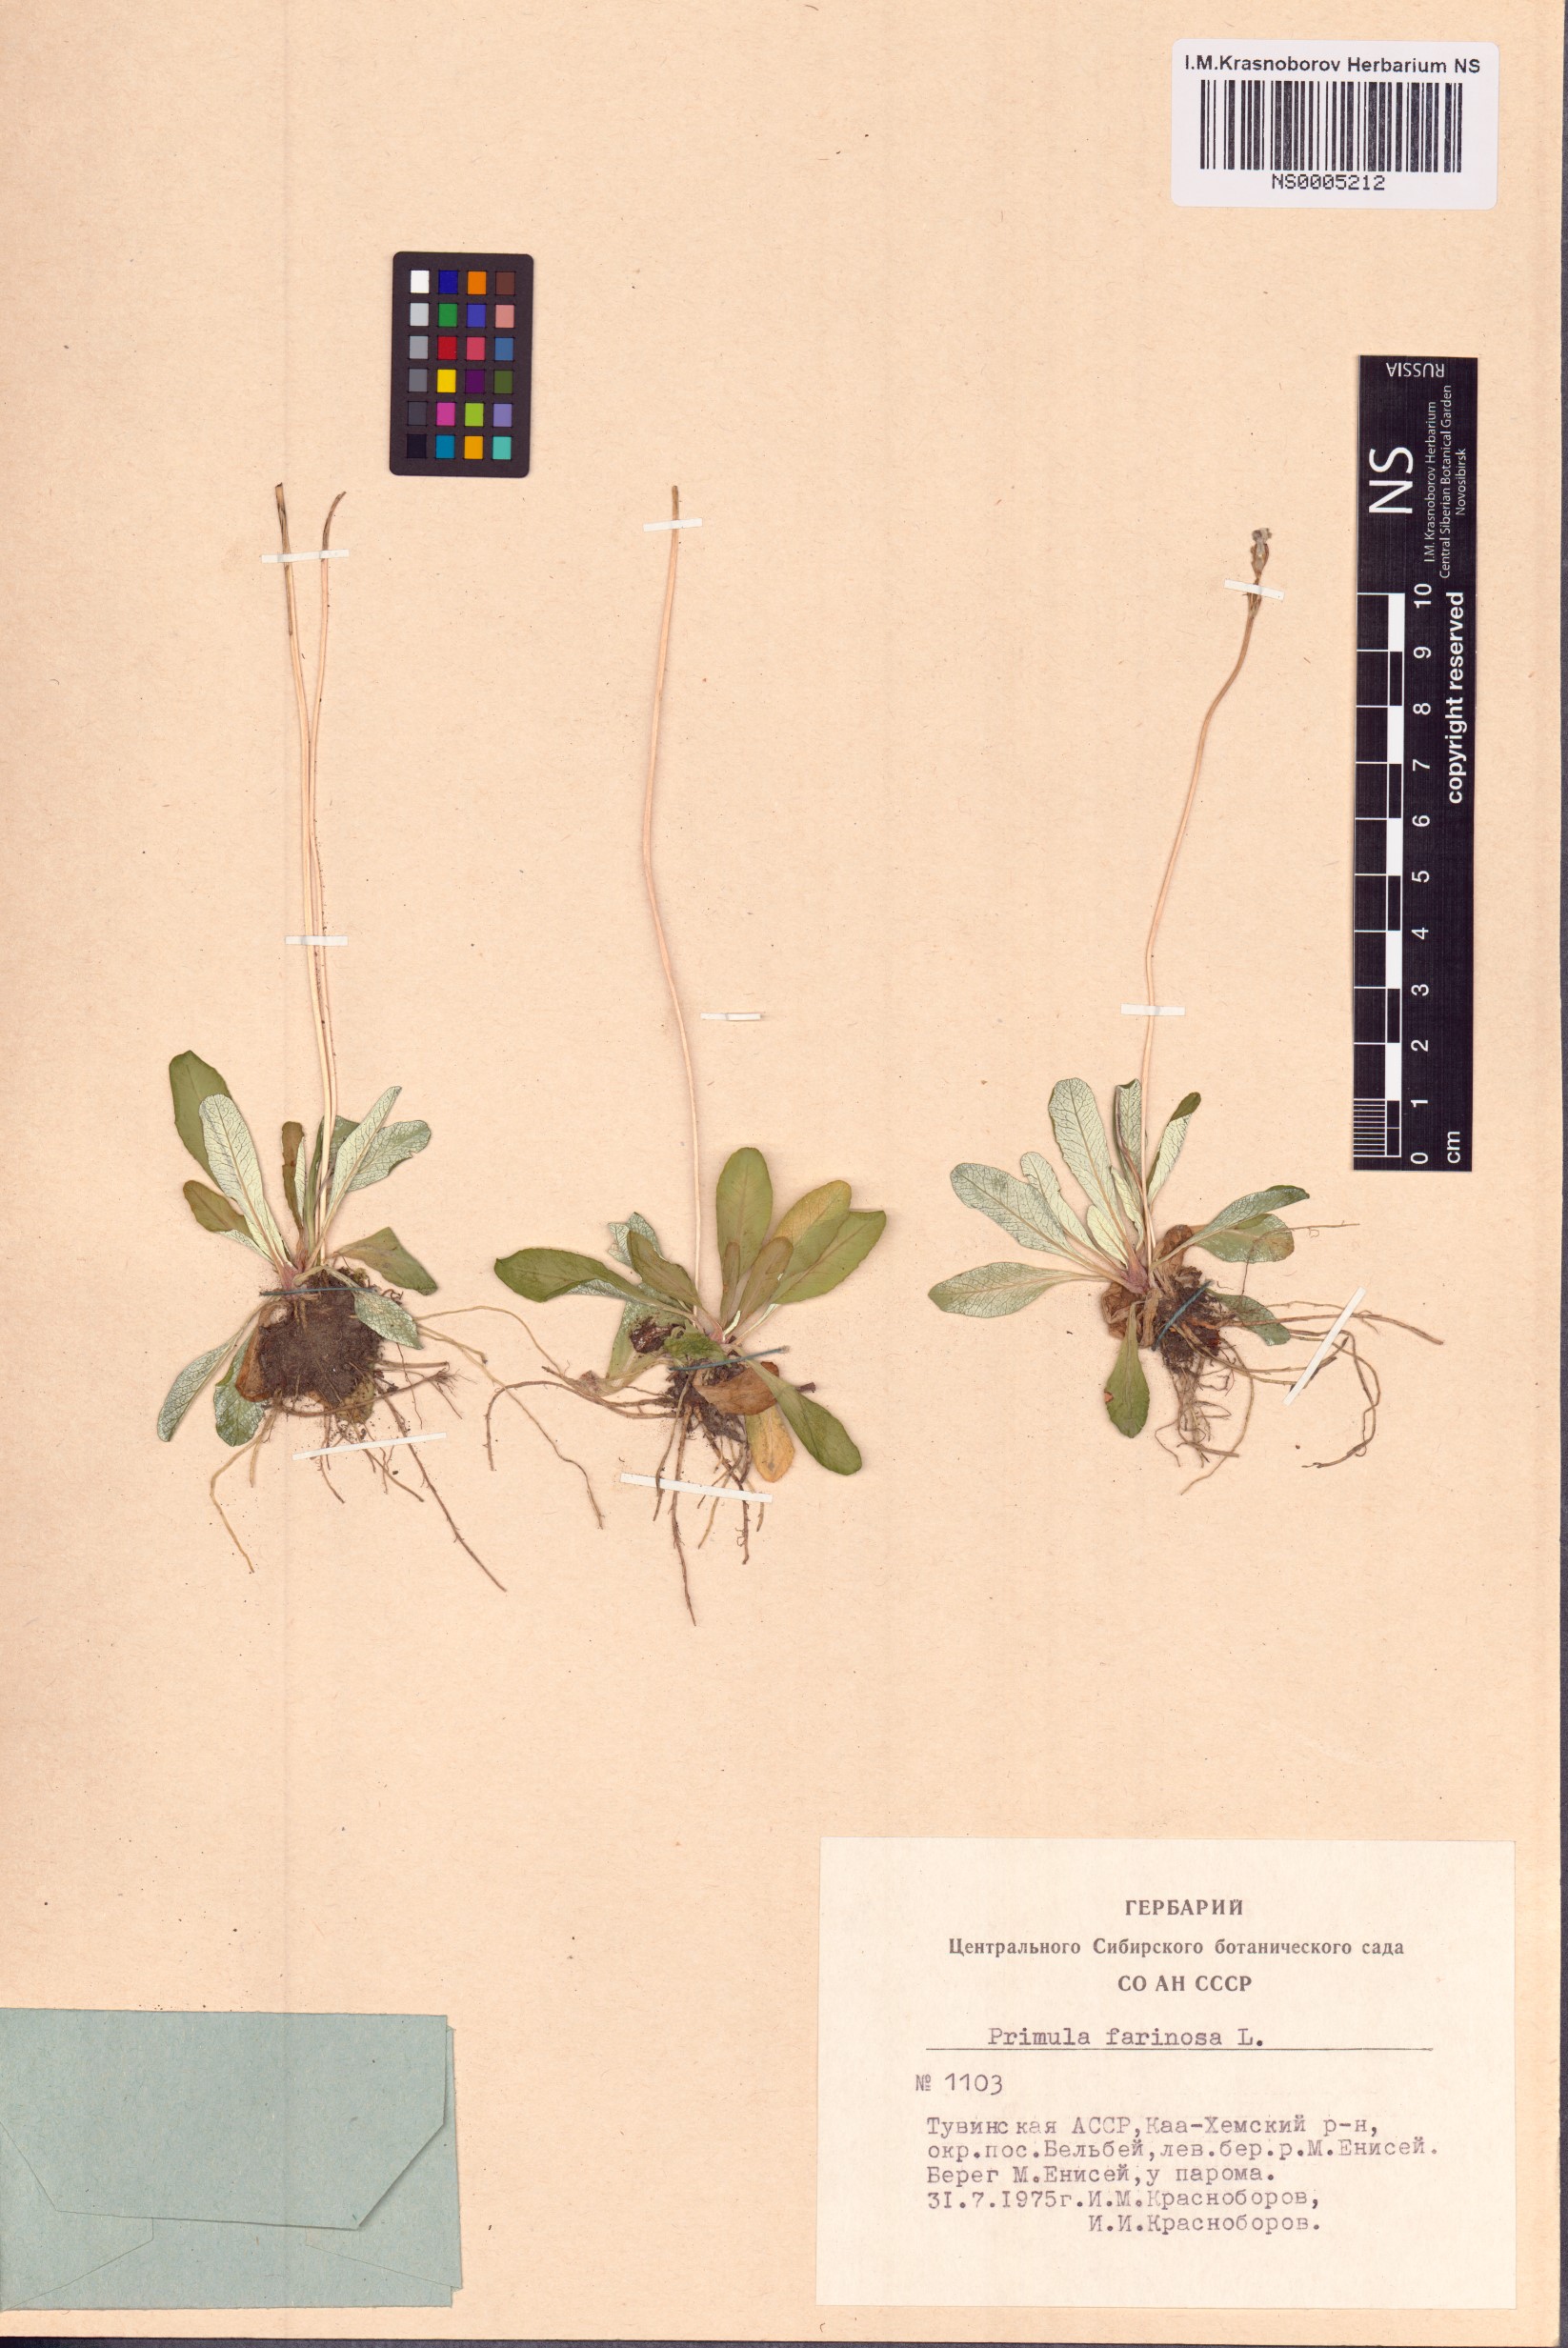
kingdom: Plantae
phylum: Tracheophyta
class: Magnoliopsida
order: Ericales
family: Primulaceae
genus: Primula
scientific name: Primula farinosa
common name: Bird's-eye primrose
